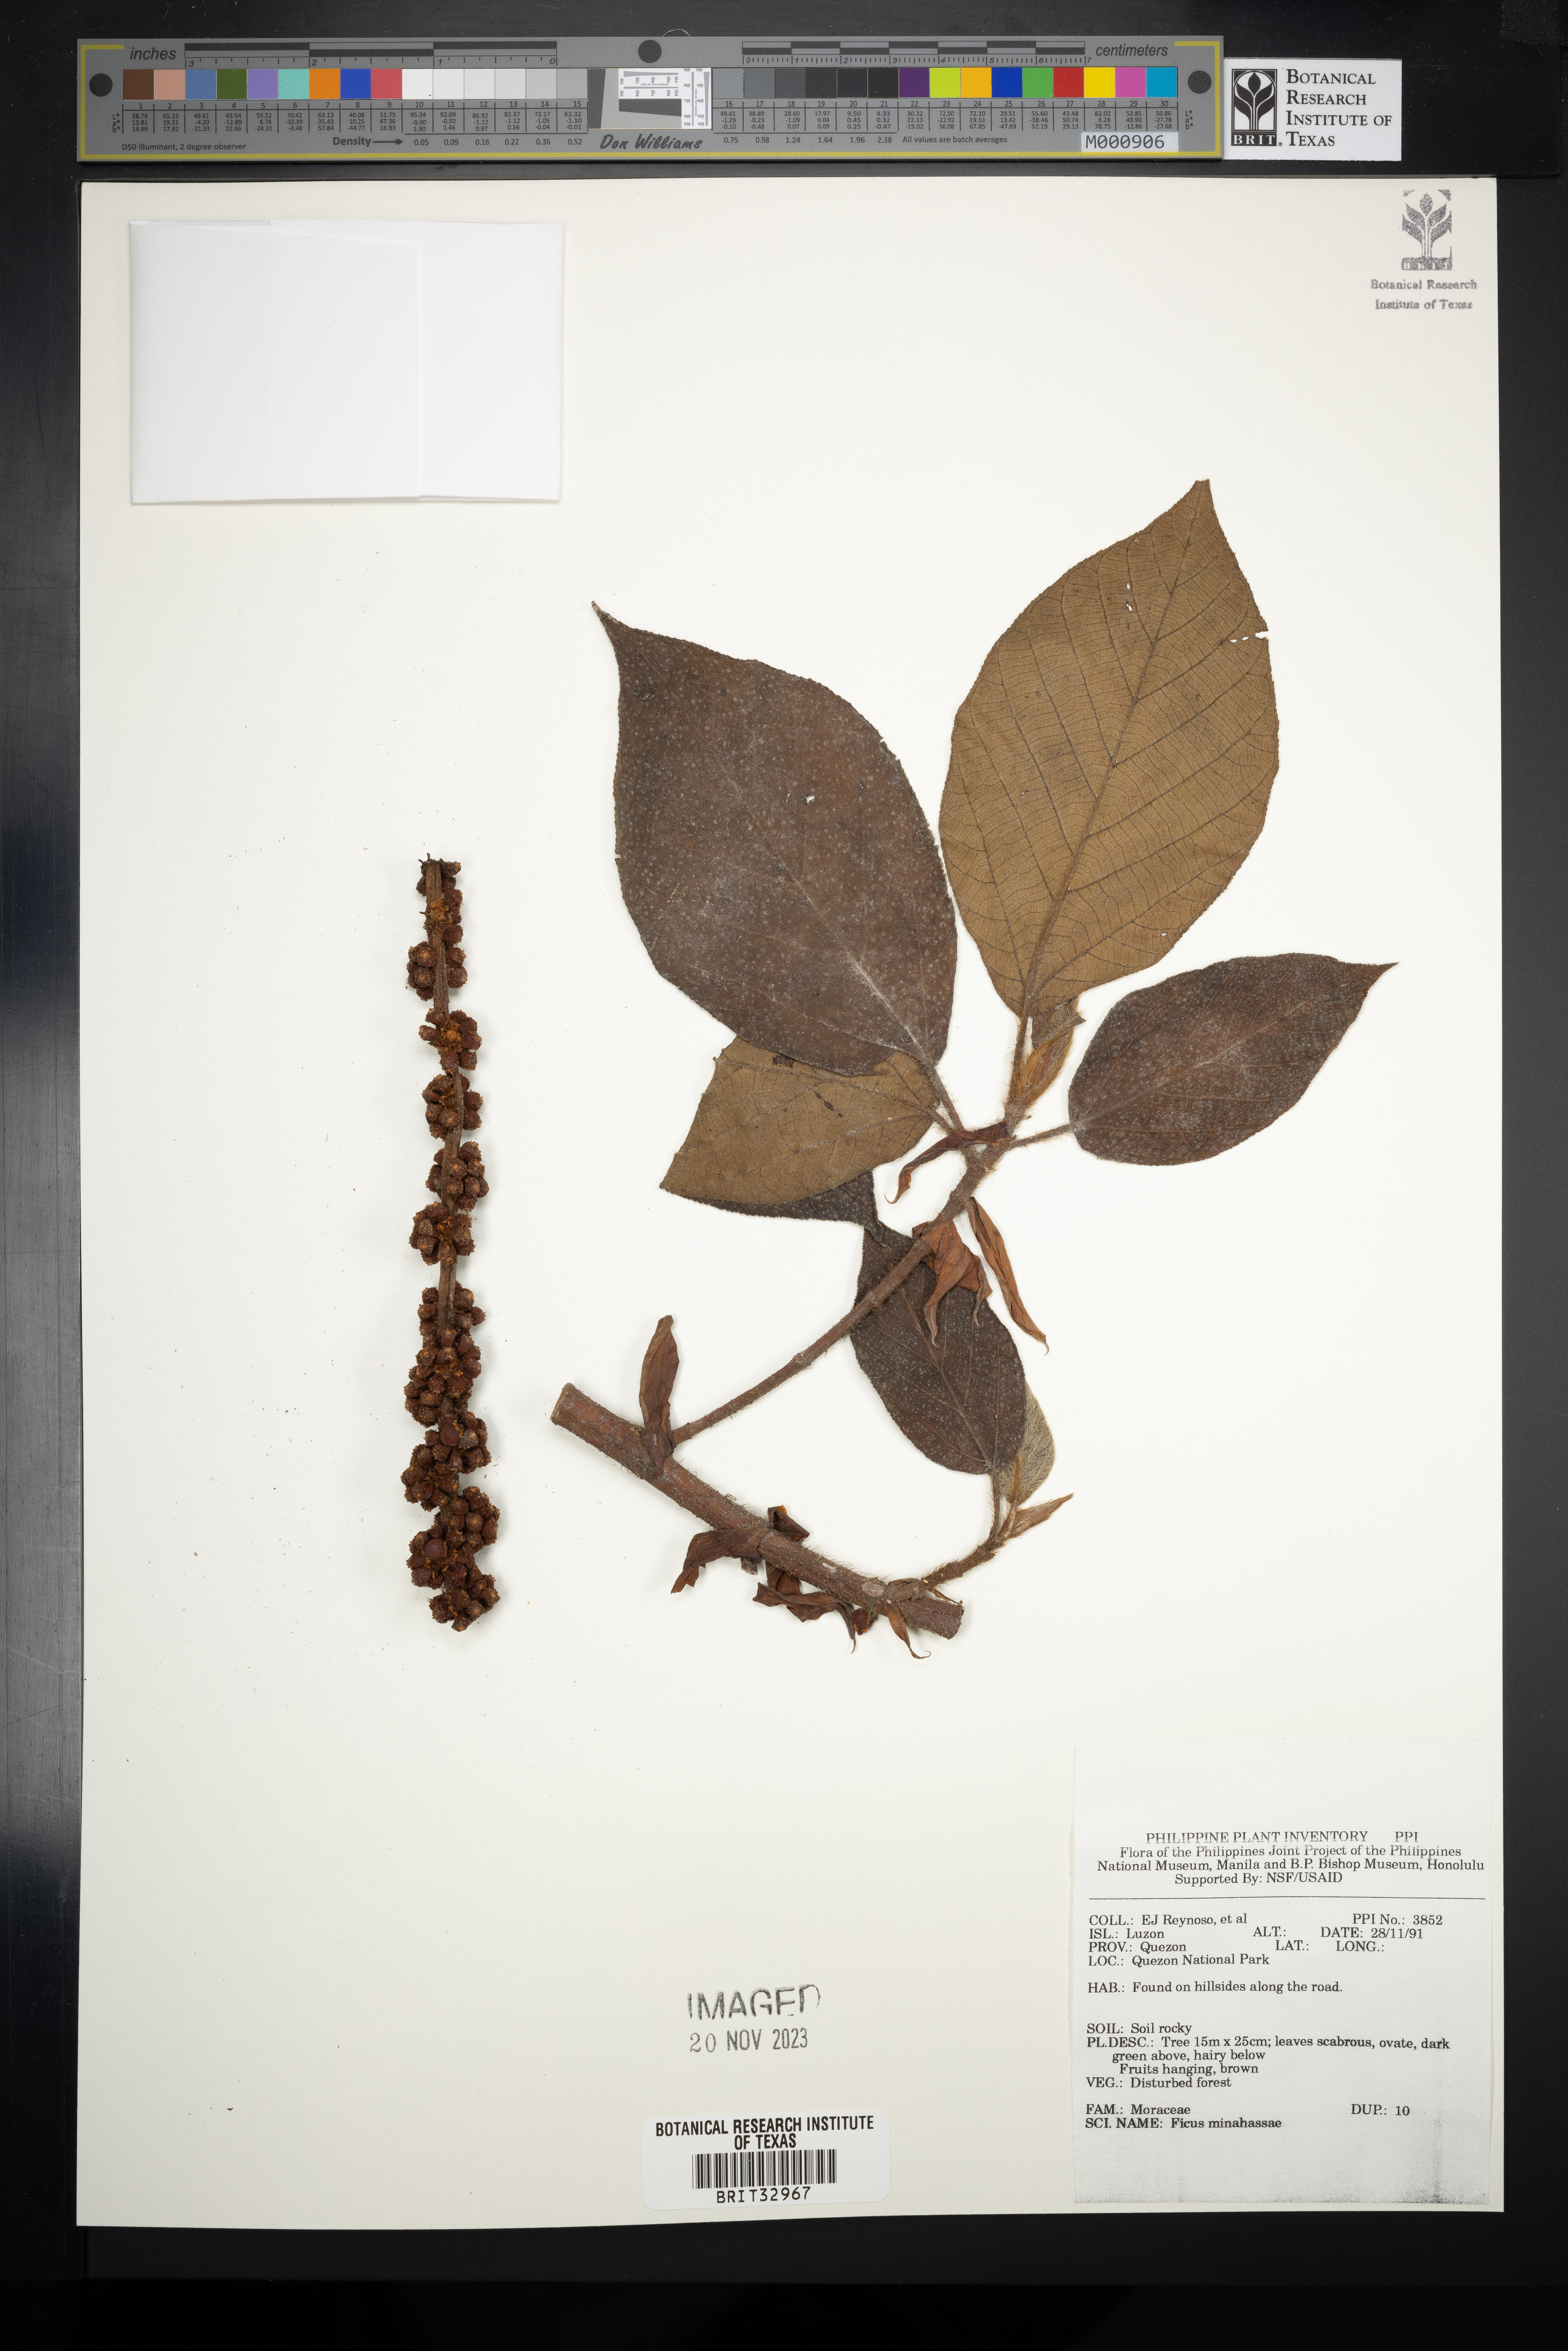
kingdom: Plantae
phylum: Tracheophyta
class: Magnoliopsida
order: Rosales
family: Moraceae
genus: Ficus
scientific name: Ficus minahassae
